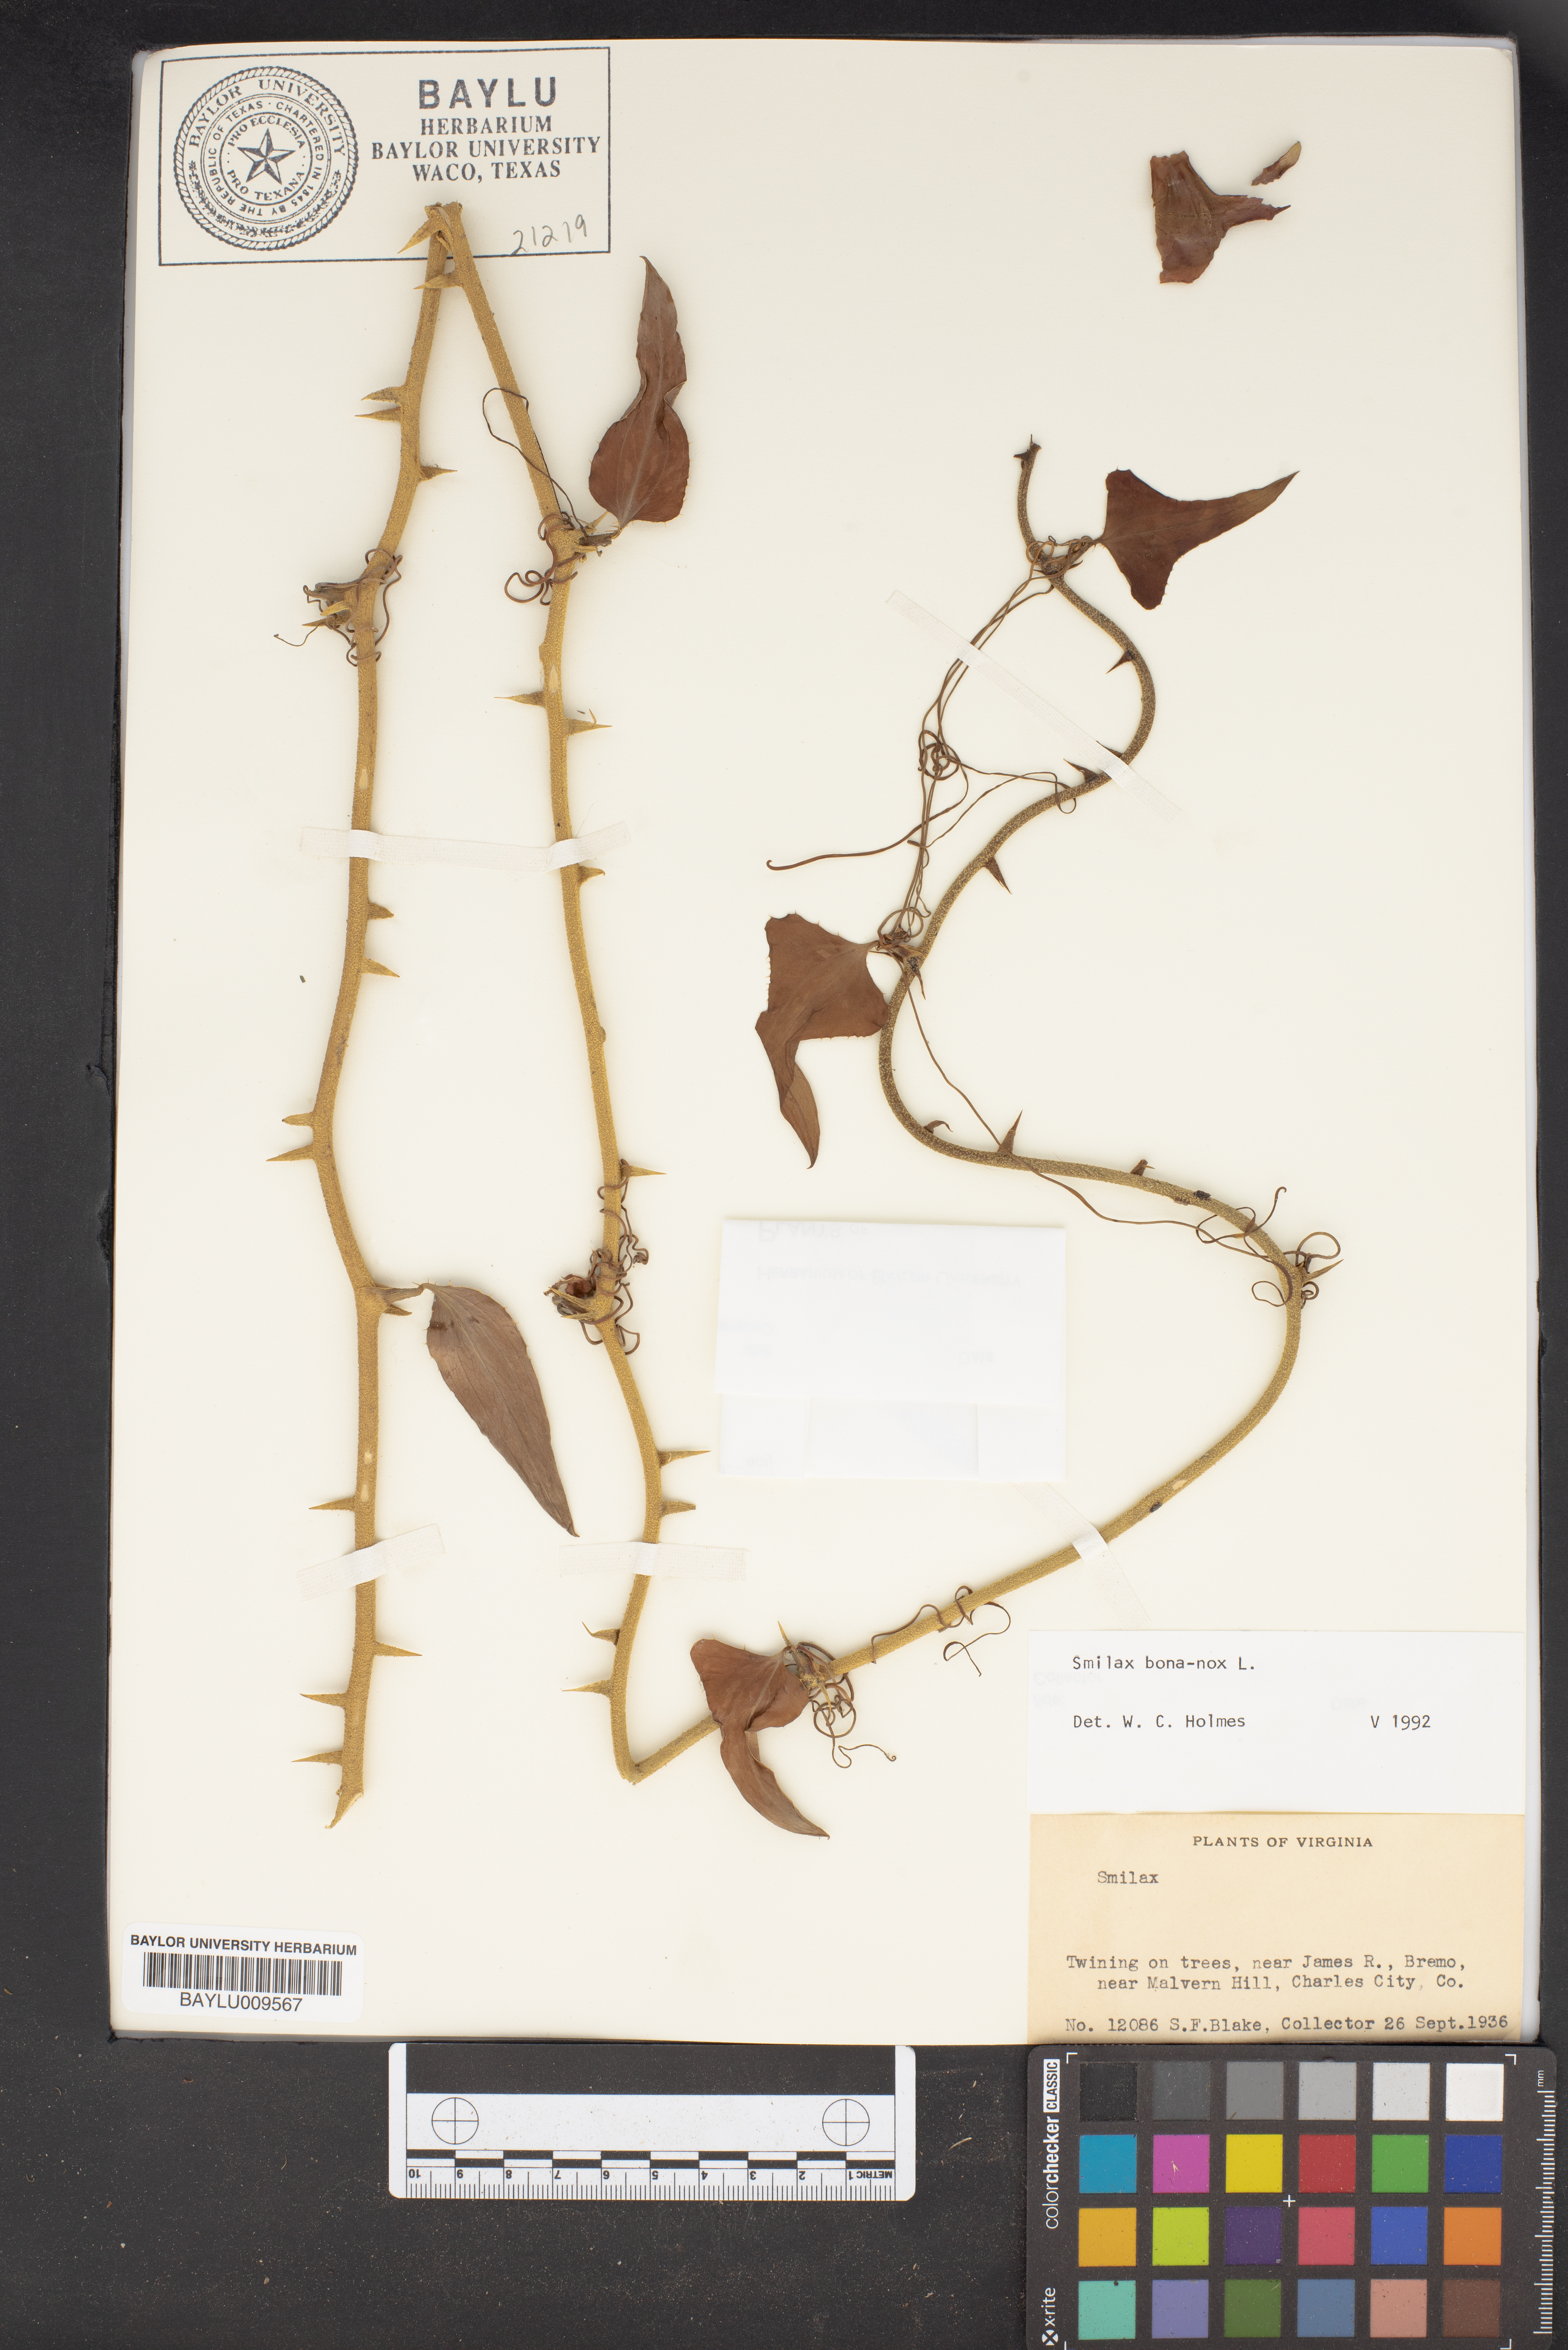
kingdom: Plantae
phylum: Tracheophyta
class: Liliopsida
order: Liliales
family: Smilacaceae
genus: Smilax
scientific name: Smilax bona-nox
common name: Catbrier
